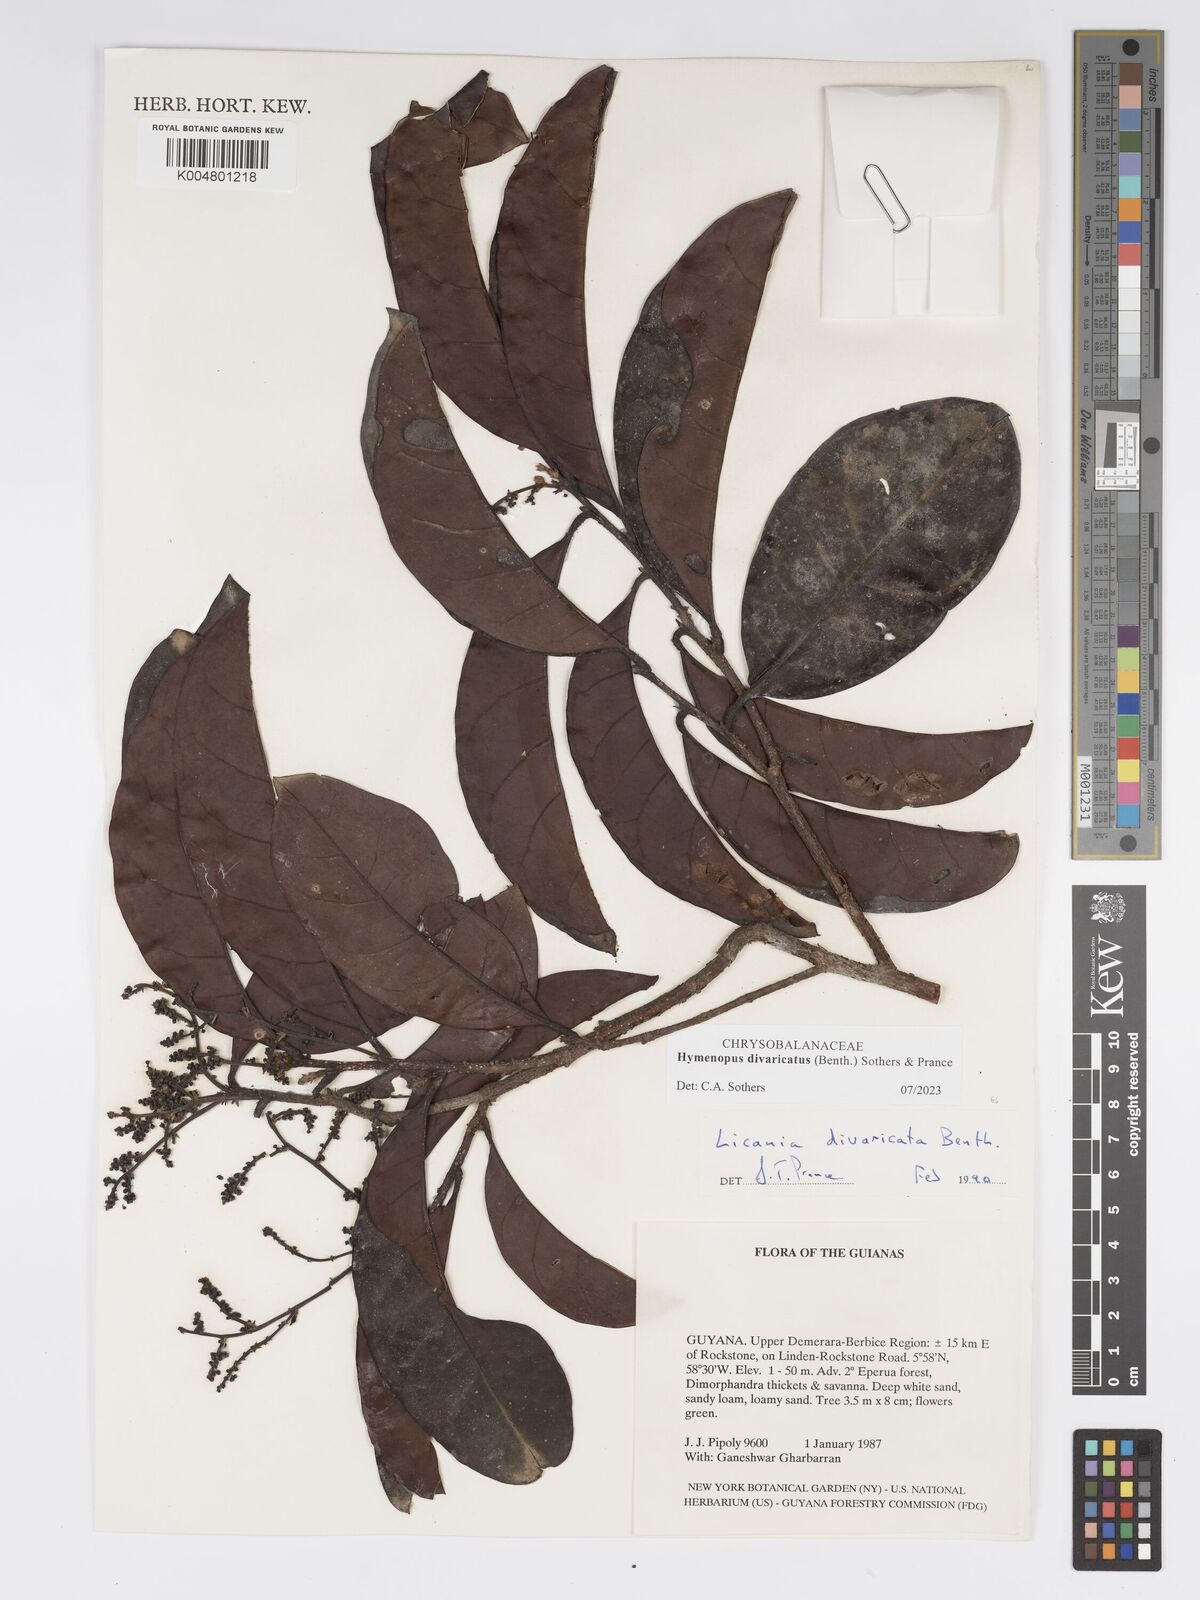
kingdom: Plantae
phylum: Tracheophyta
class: Magnoliopsida
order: Malpighiales
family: Chrysobalanaceae
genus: Hymenopus
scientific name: Hymenopus divaricatus
